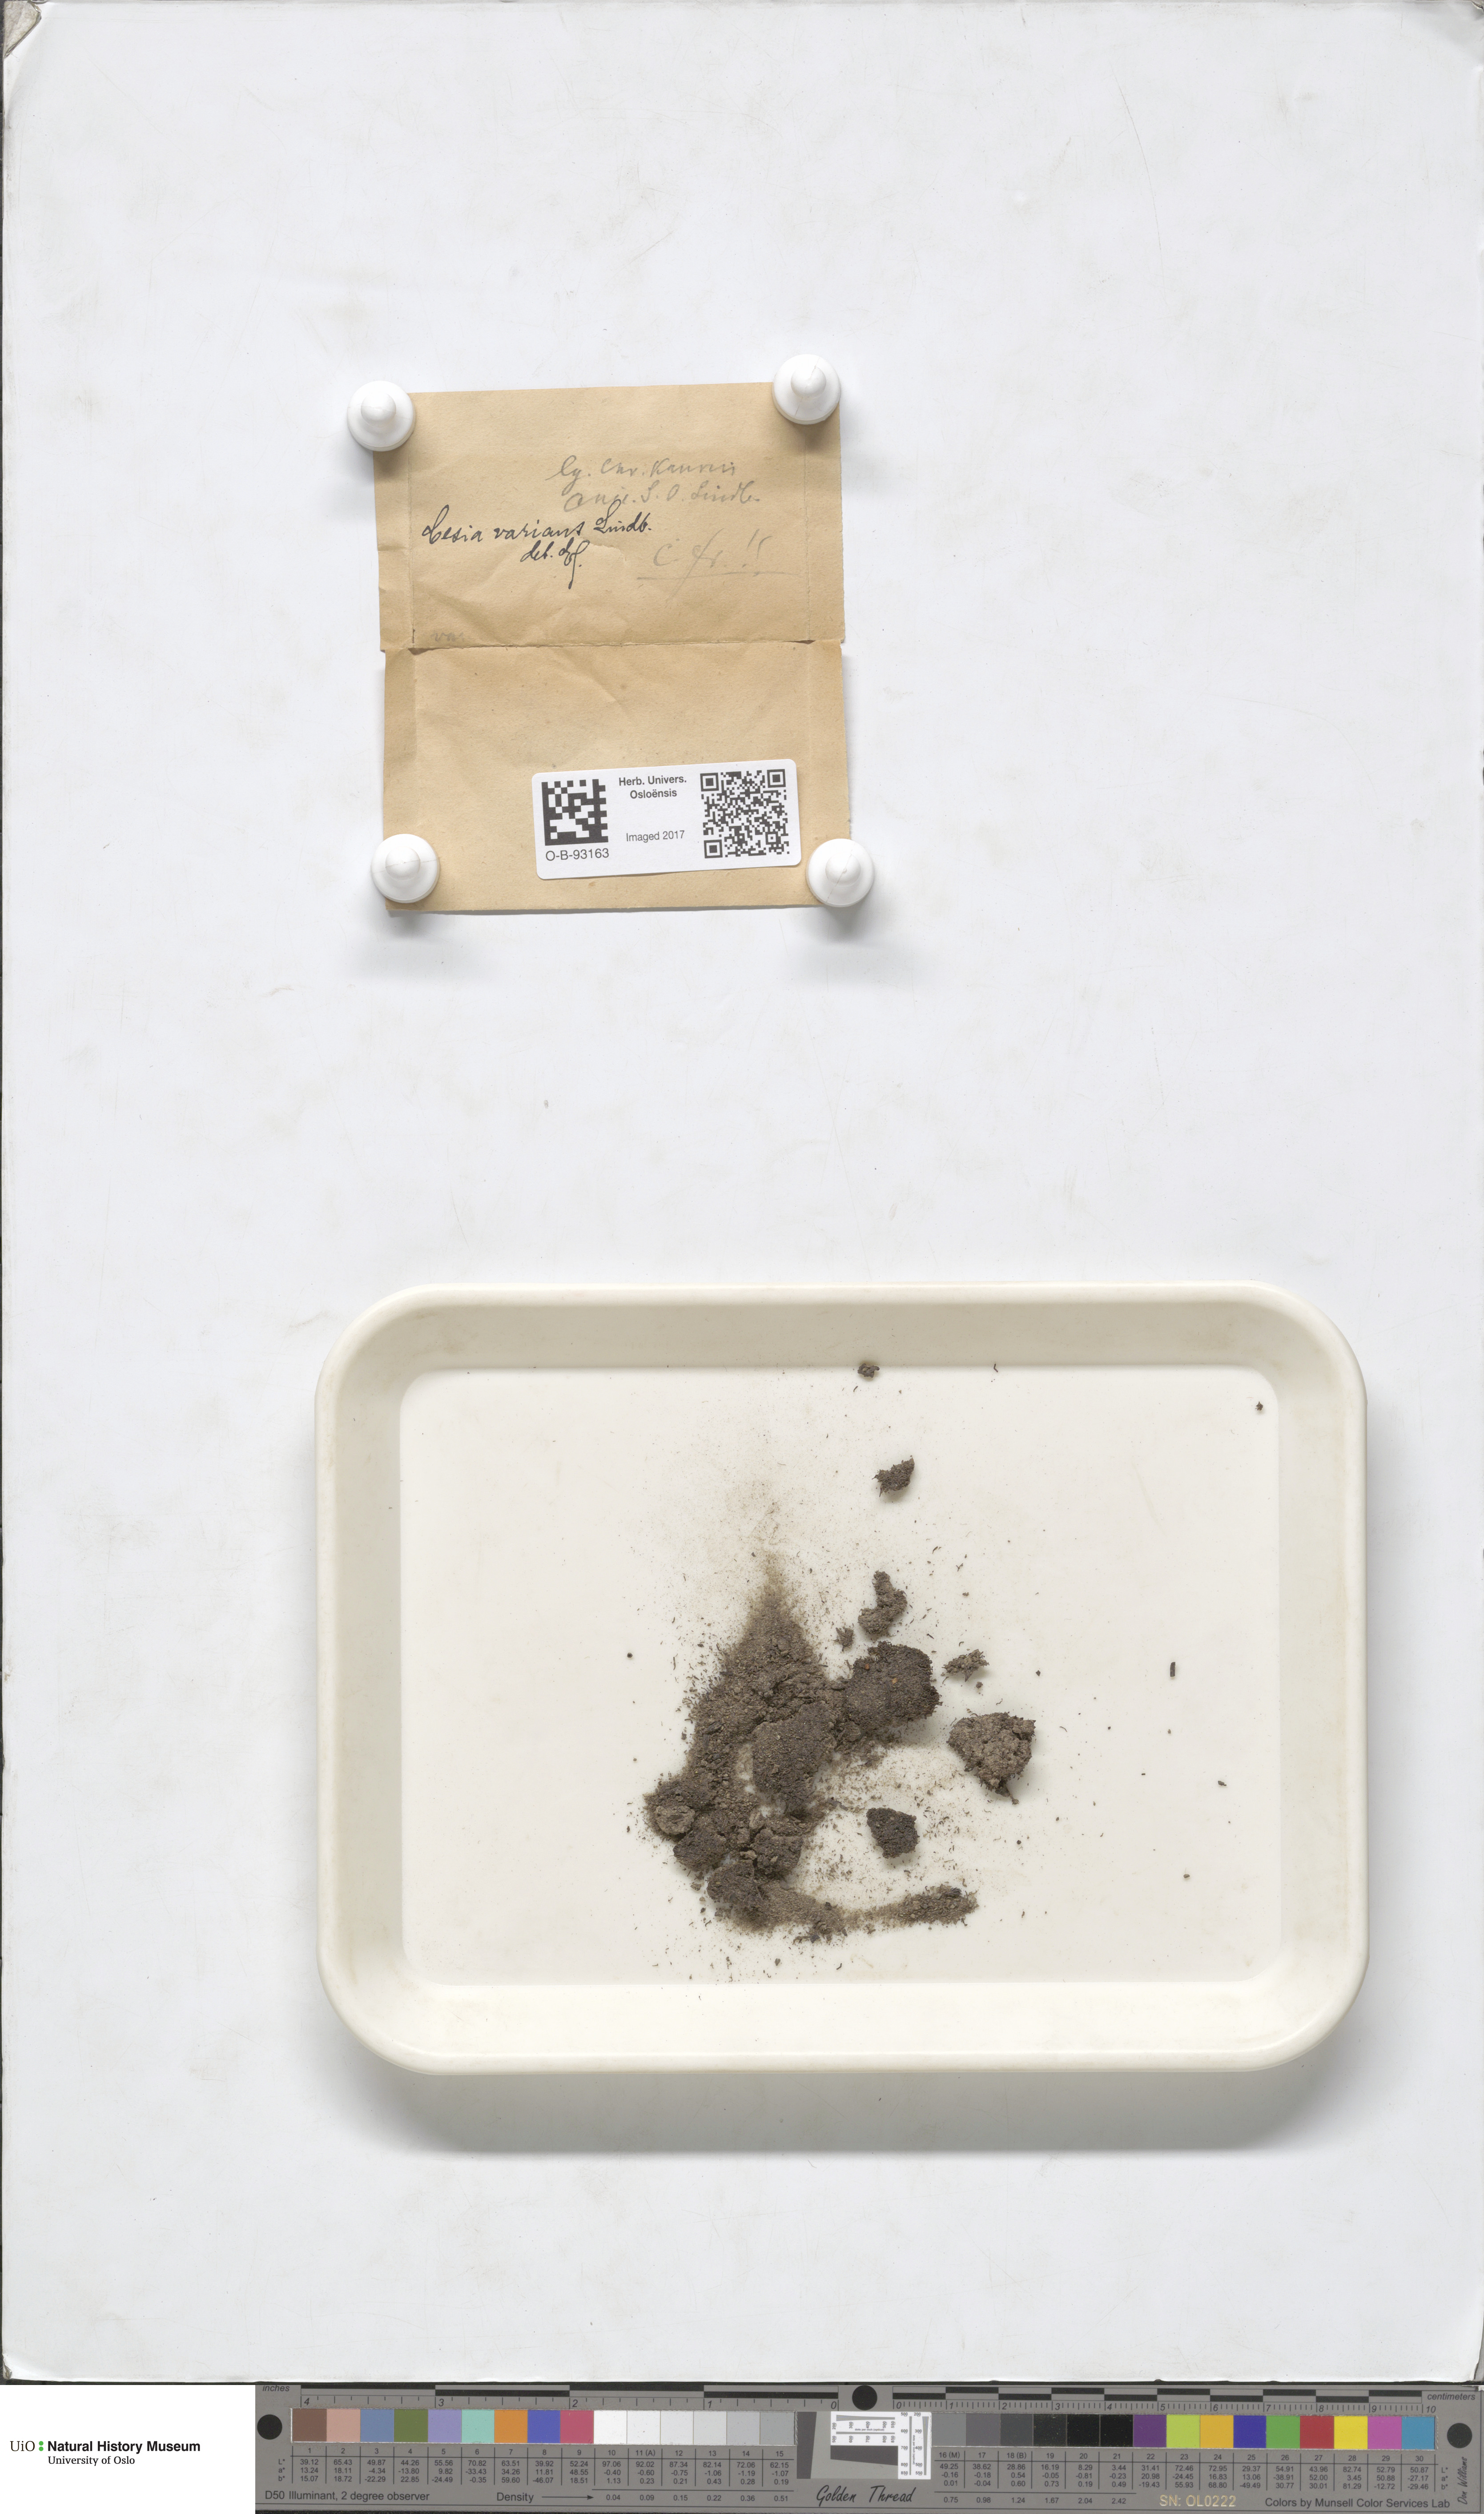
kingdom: Plantae
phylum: Marchantiophyta
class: Jungermanniopsida
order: Jungermanniales
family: Gymnomitriaceae
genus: Gymnomitrion
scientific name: Gymnomitrion brevissimum
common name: Snow rustwort
